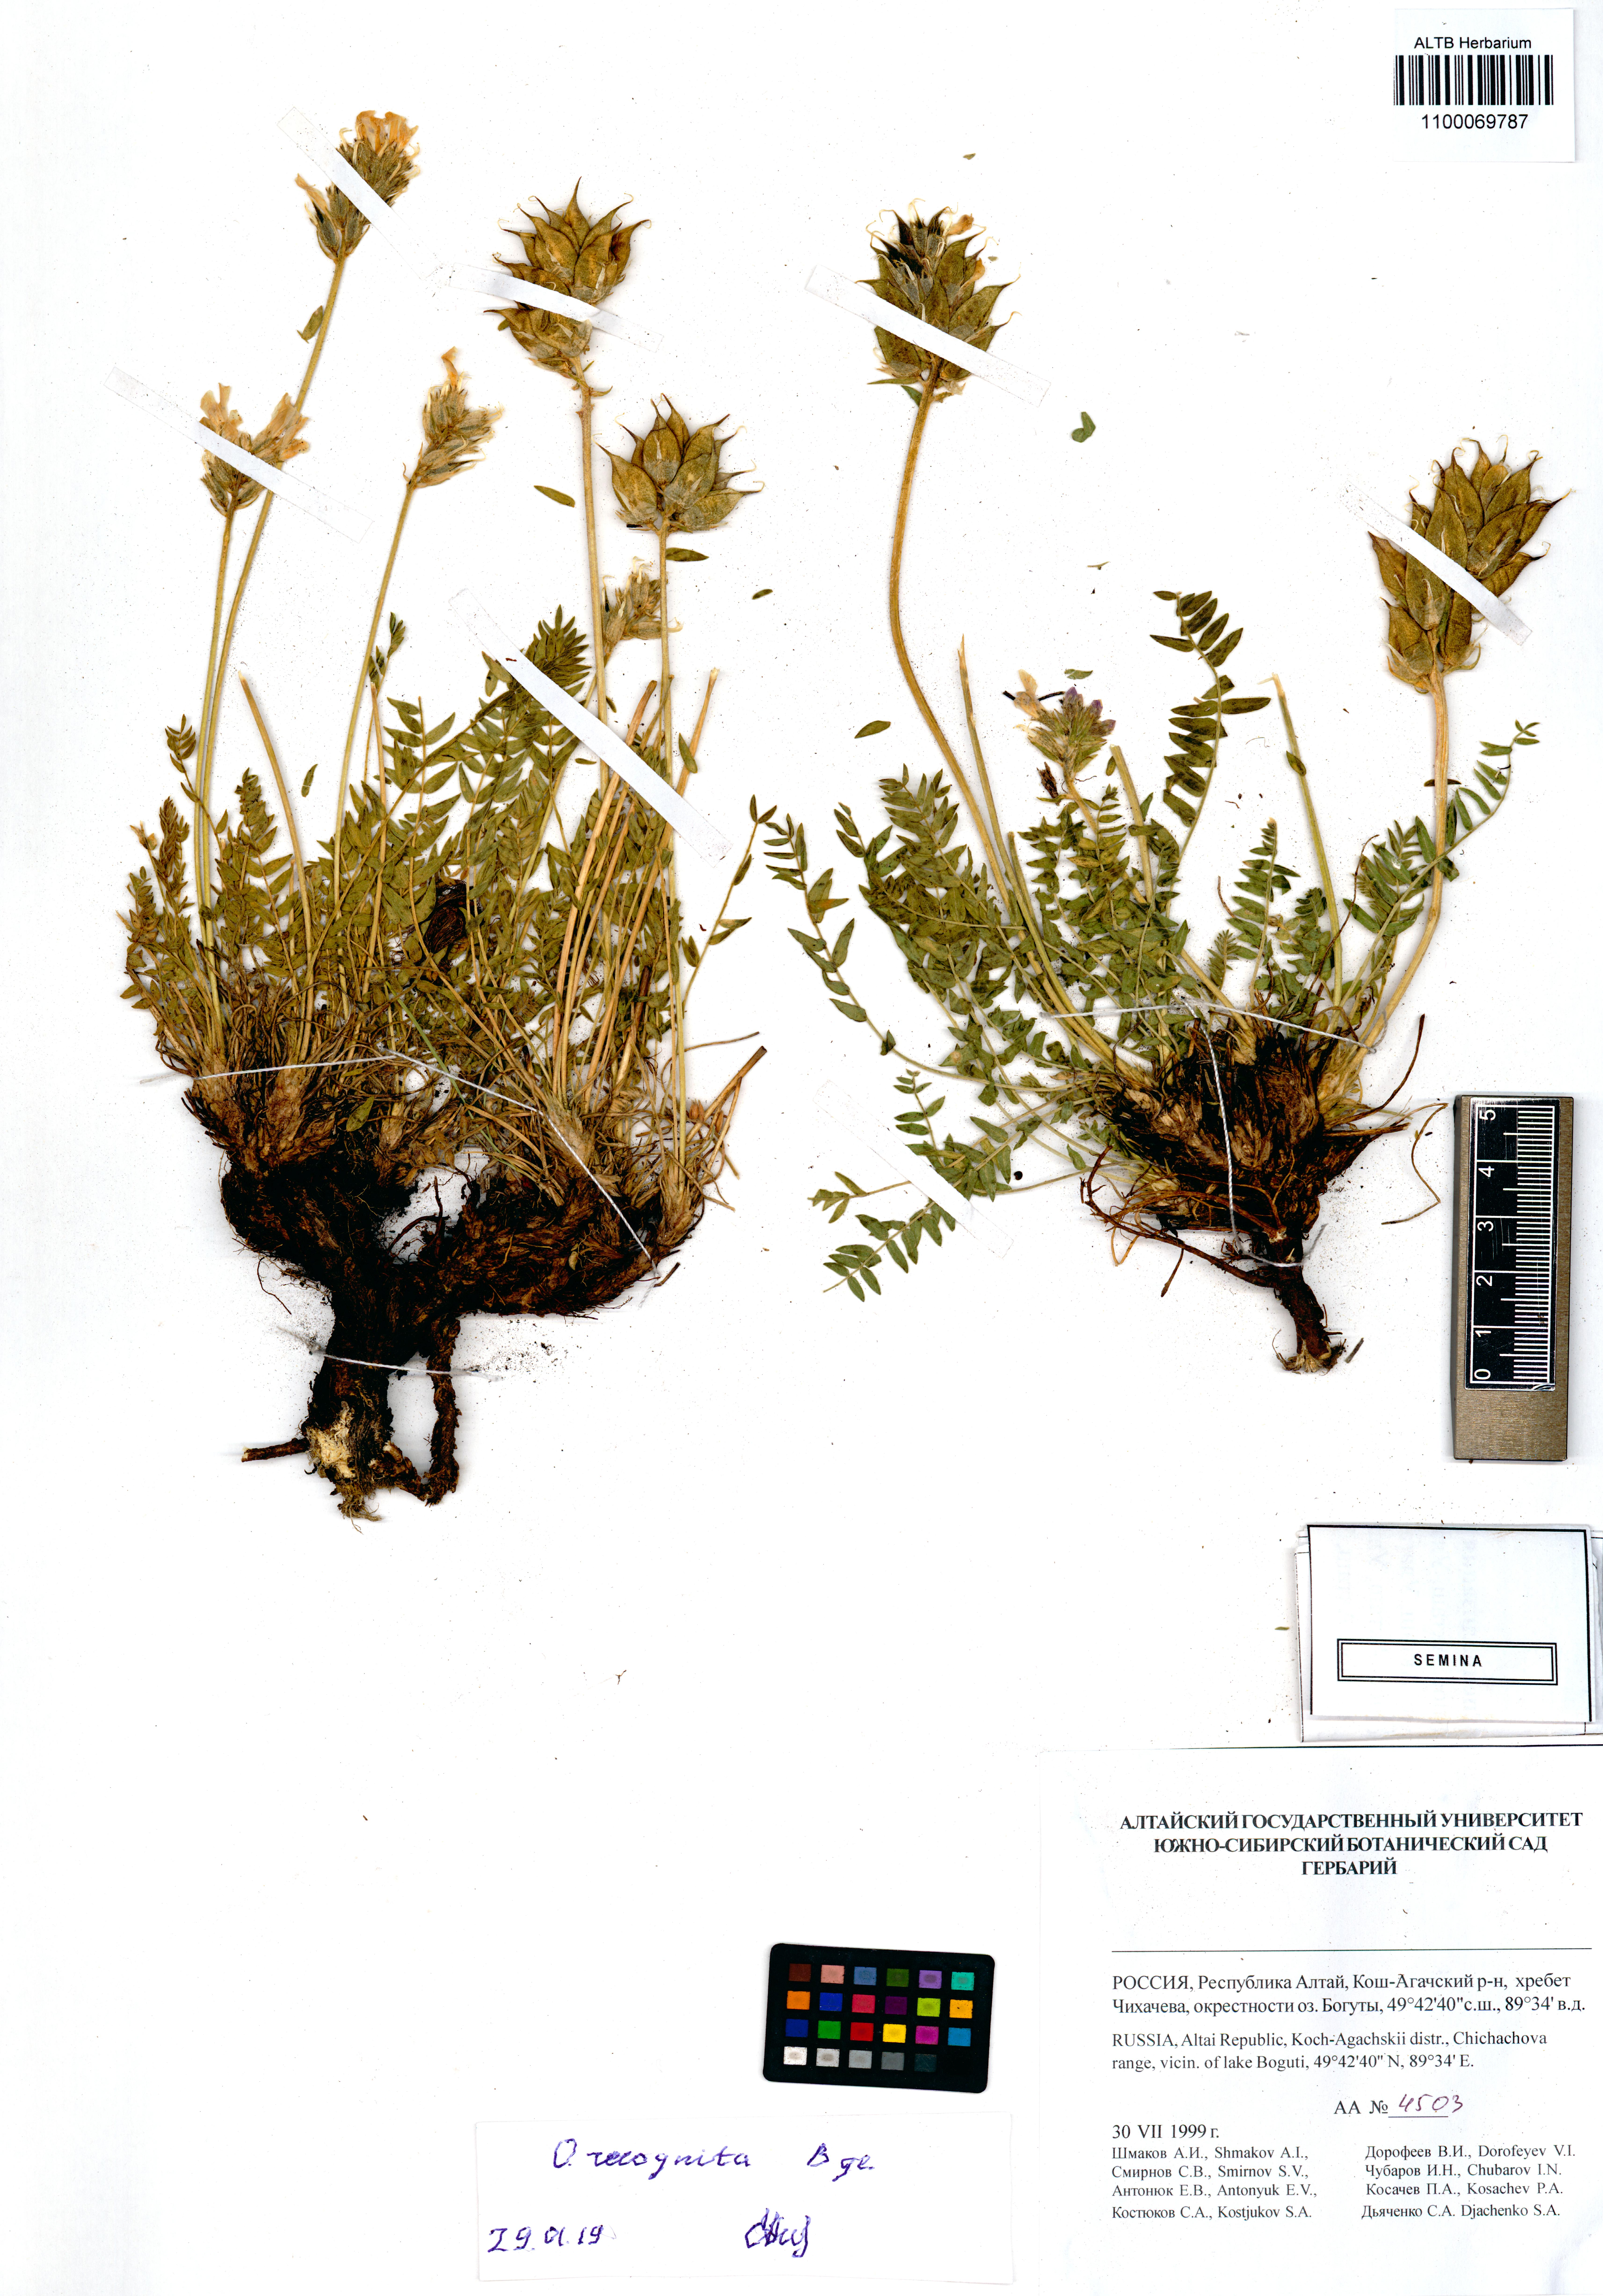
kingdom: Plantae
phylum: Tracheophyta
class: Magnoliopsida
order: Fabales
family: Fabaceae
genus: Oxytropis
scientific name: Oxytropis recognita
